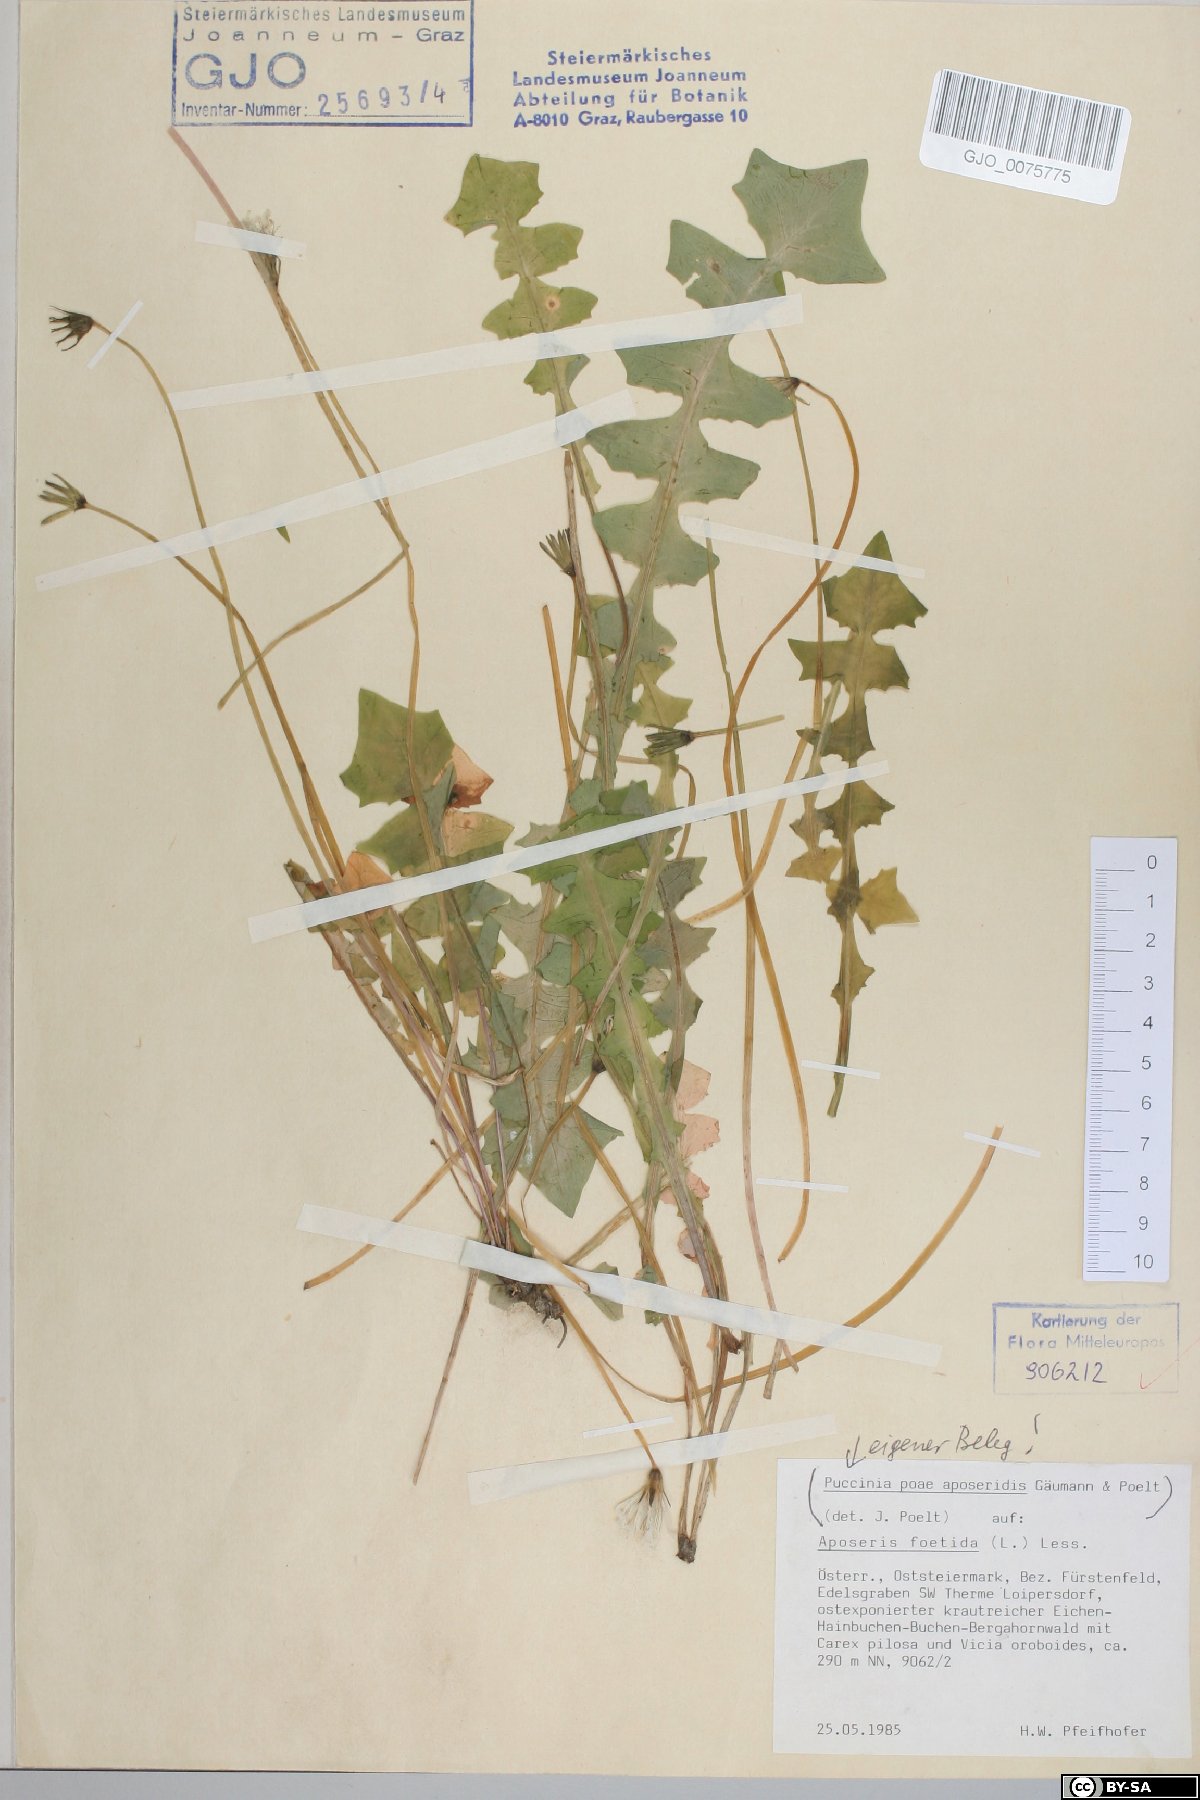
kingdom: Plantae
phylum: Tracheophyta
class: Magnoliopsida
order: Asterales
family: Asteraceae
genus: Aposeris
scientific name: Aposeris foetida
